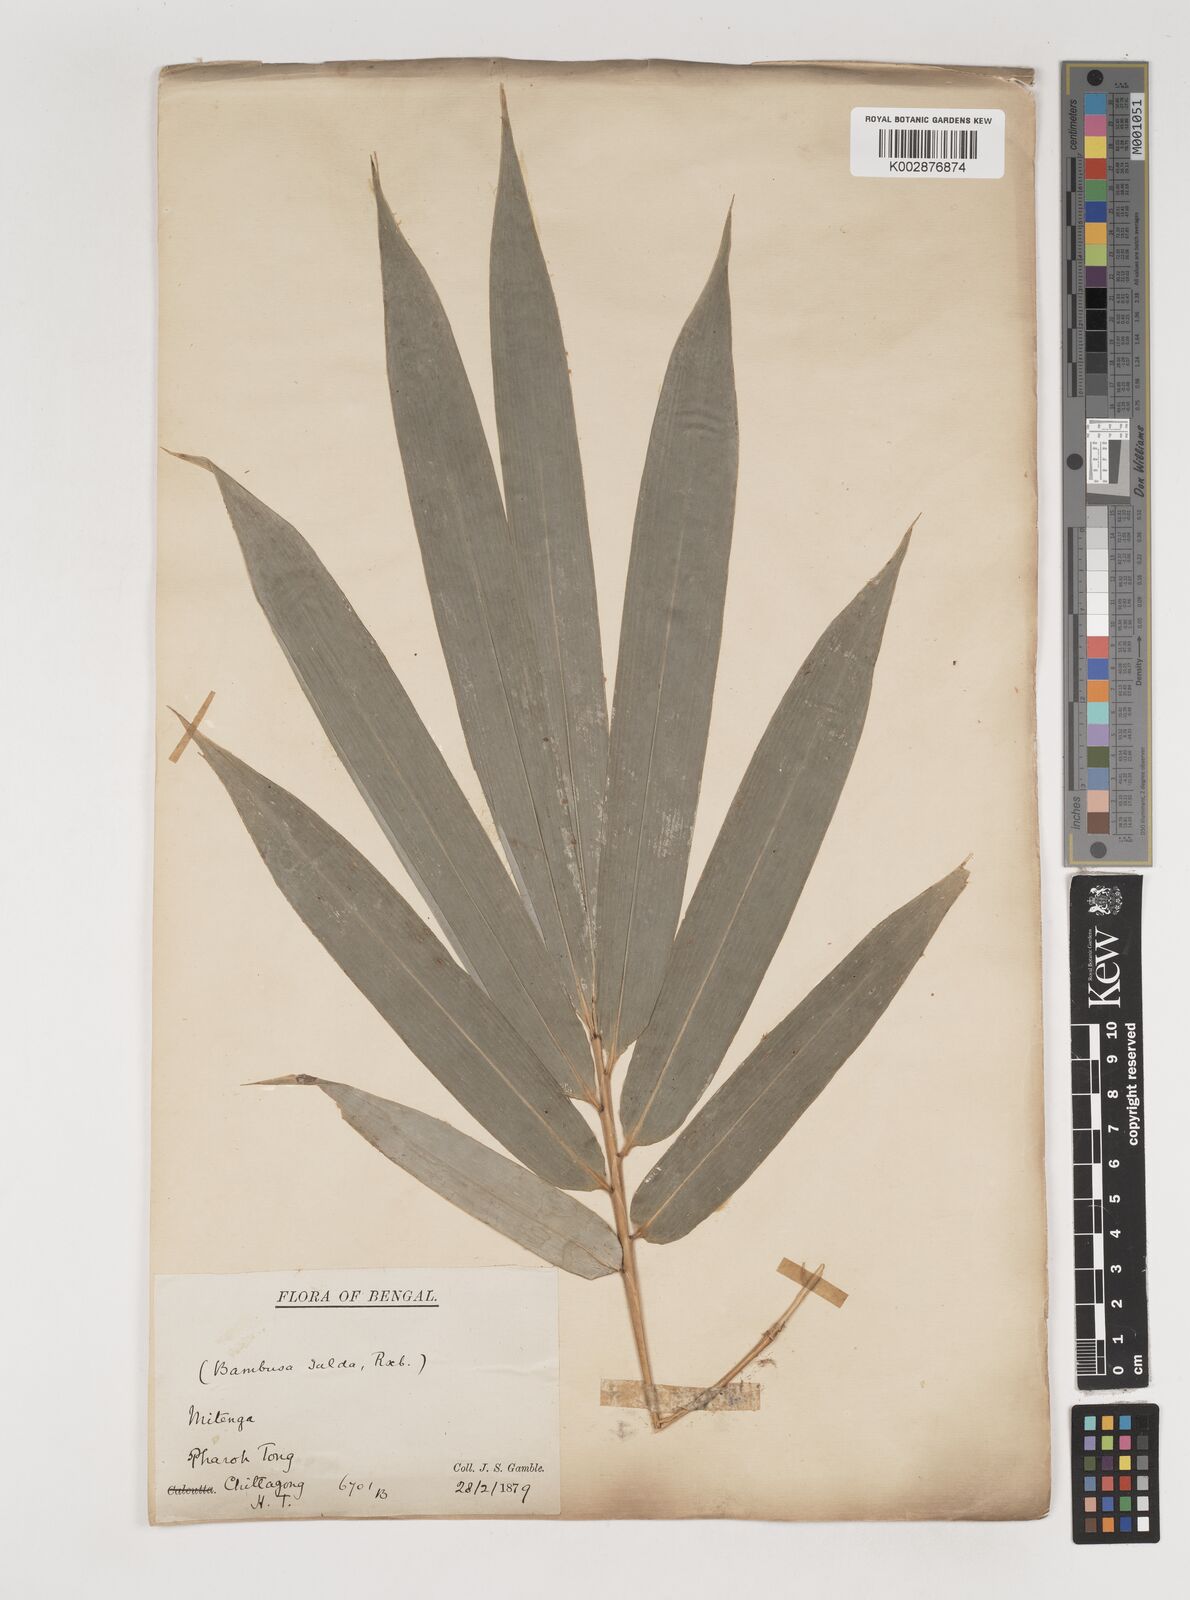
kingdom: Plantae
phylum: Tracheophyta
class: Liliopsida
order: Poales
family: Poaceae
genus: Bambusa
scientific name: Bambusa tuldoides
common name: Verdant bamboo
